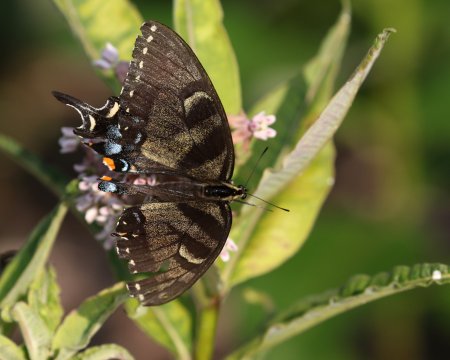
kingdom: Animalia
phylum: Arthropoda
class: Insecta
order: Lepidoptera
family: Papilionidae
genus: Pterourus
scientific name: Pterourus glaucus
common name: Eastern Tiger Swallowtail
